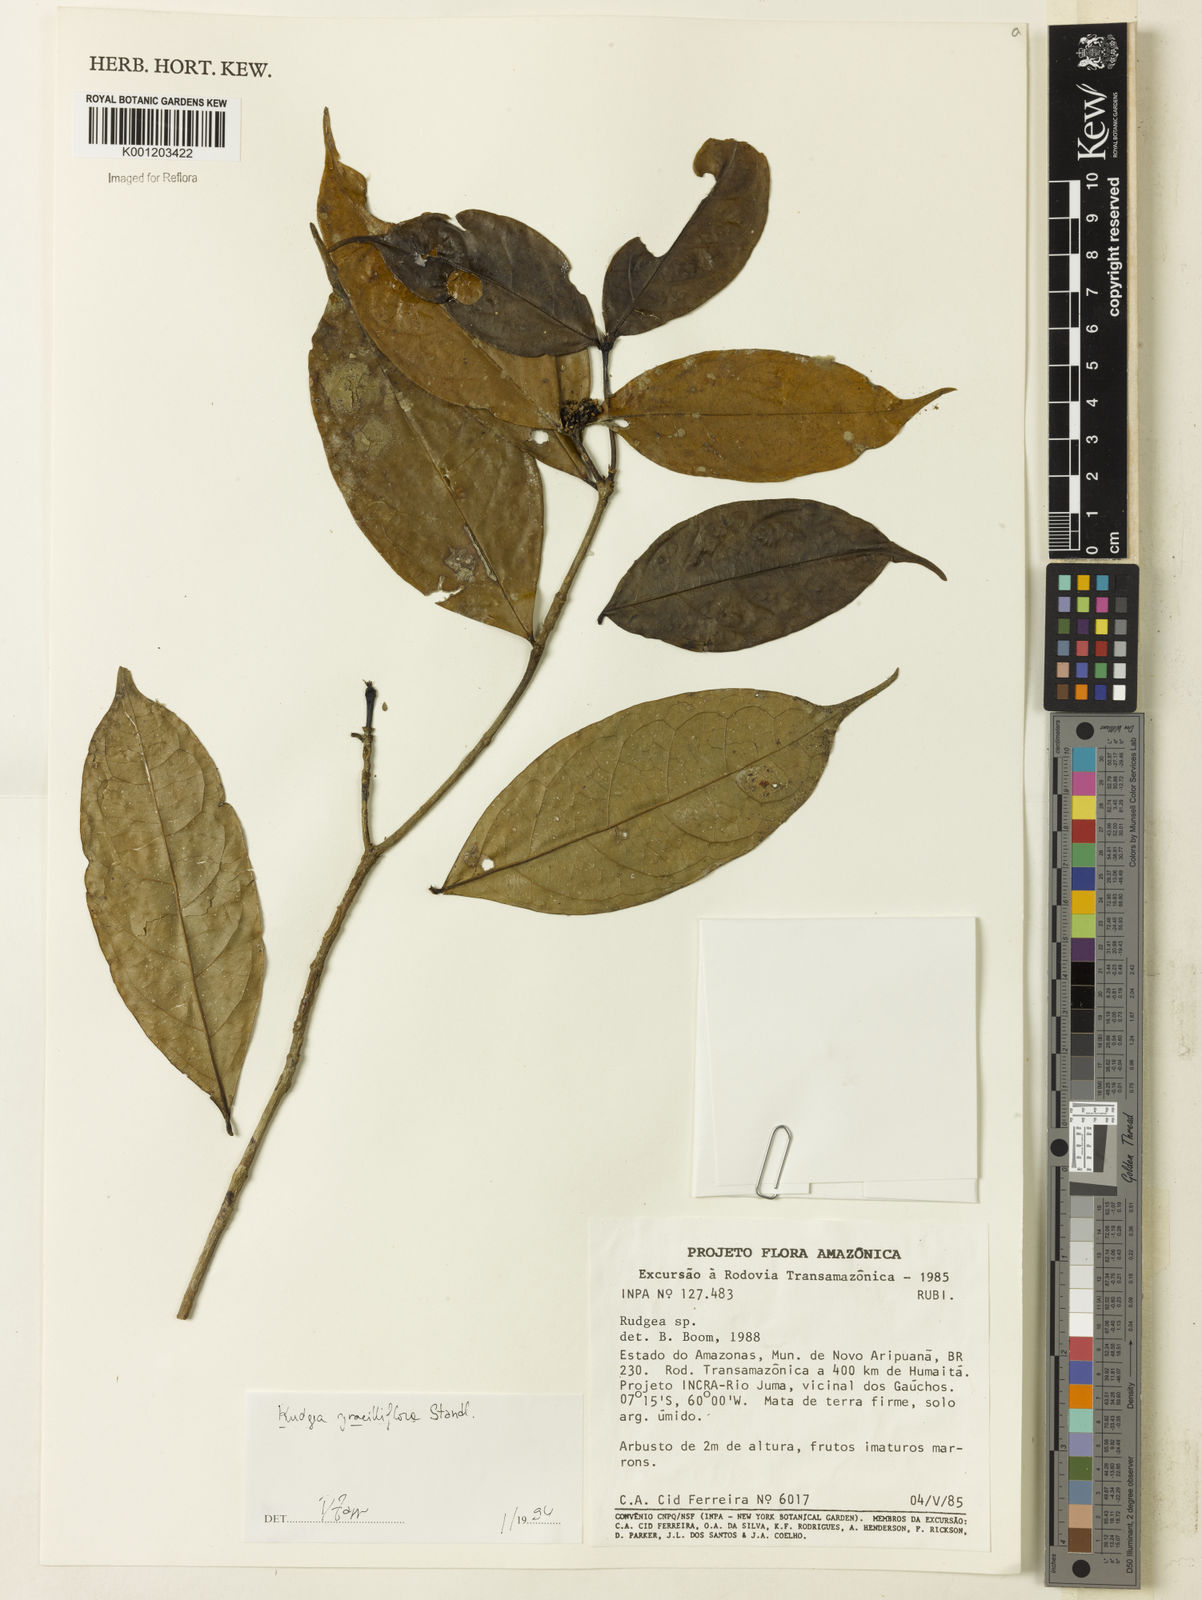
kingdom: Plantae
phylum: Tracheophyta
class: Magnoliopsida
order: Gentianales
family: Rubiaceae
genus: Rudgea
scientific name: Rudgea graciliflora
